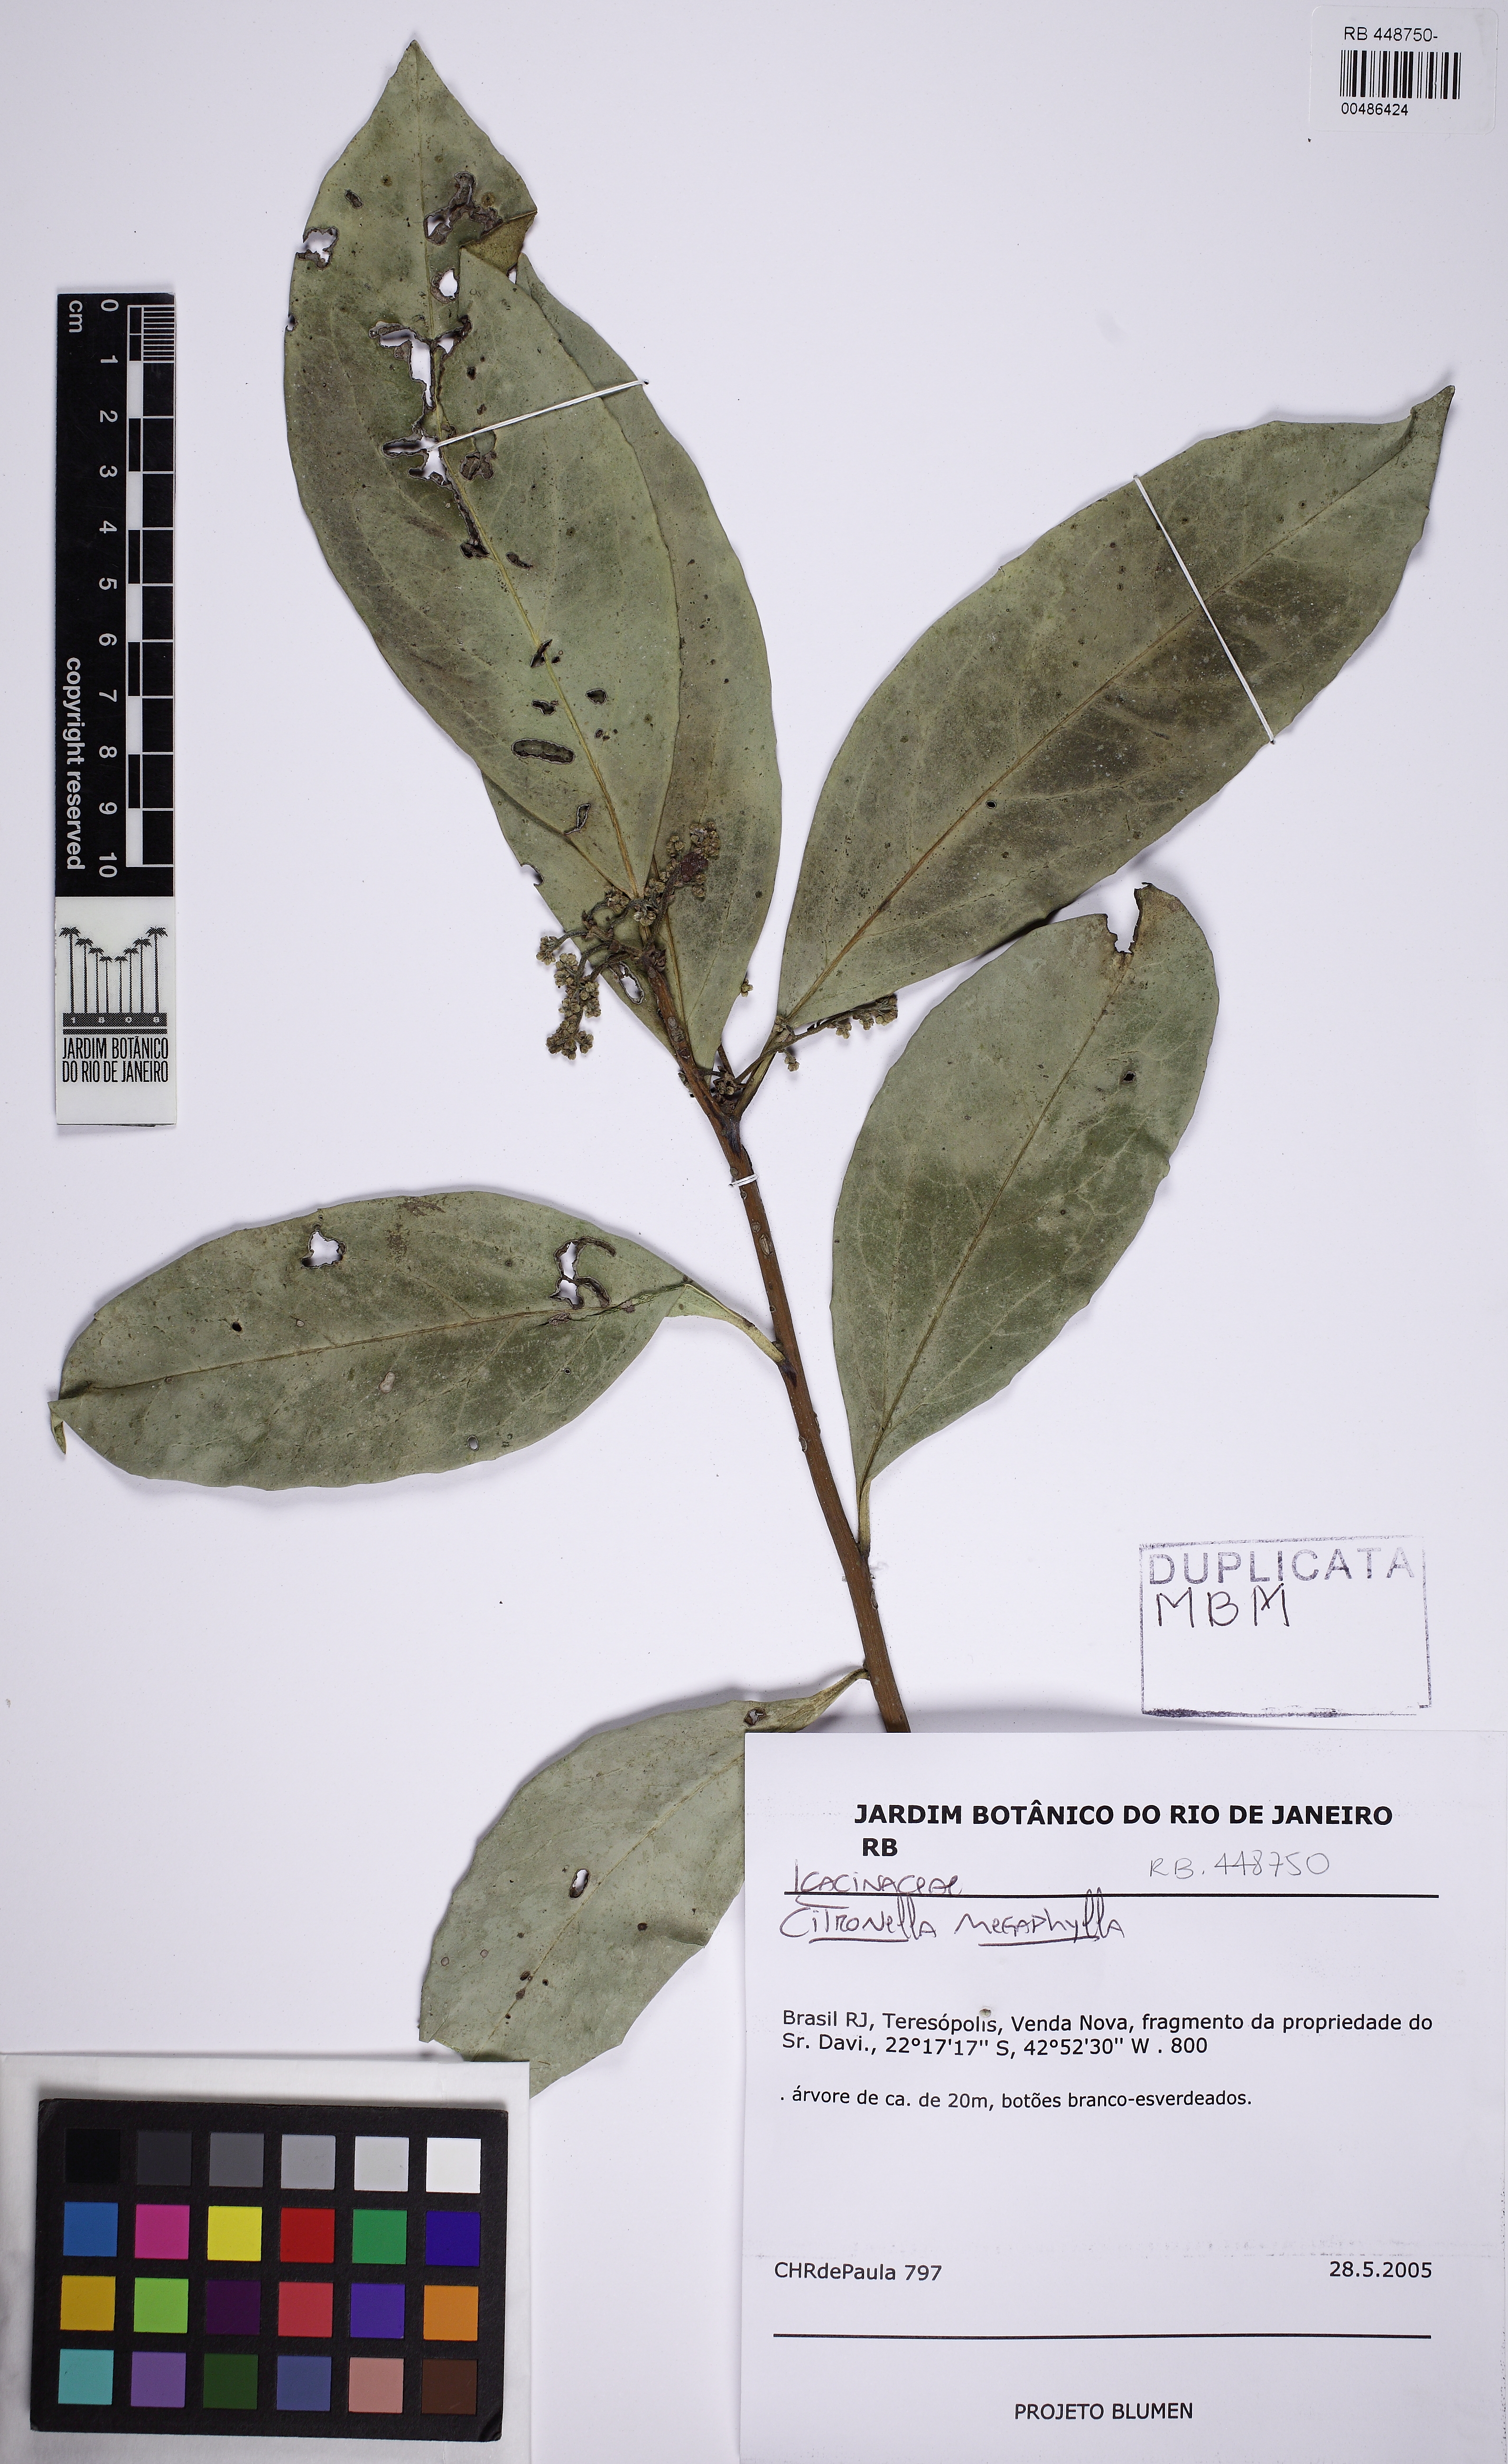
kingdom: Plantae
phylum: Tracheophyta
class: Magnoliopsida
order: Cardiopteridales
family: Cardiopteridaceae
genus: Citronella
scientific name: Citronella paniculata
